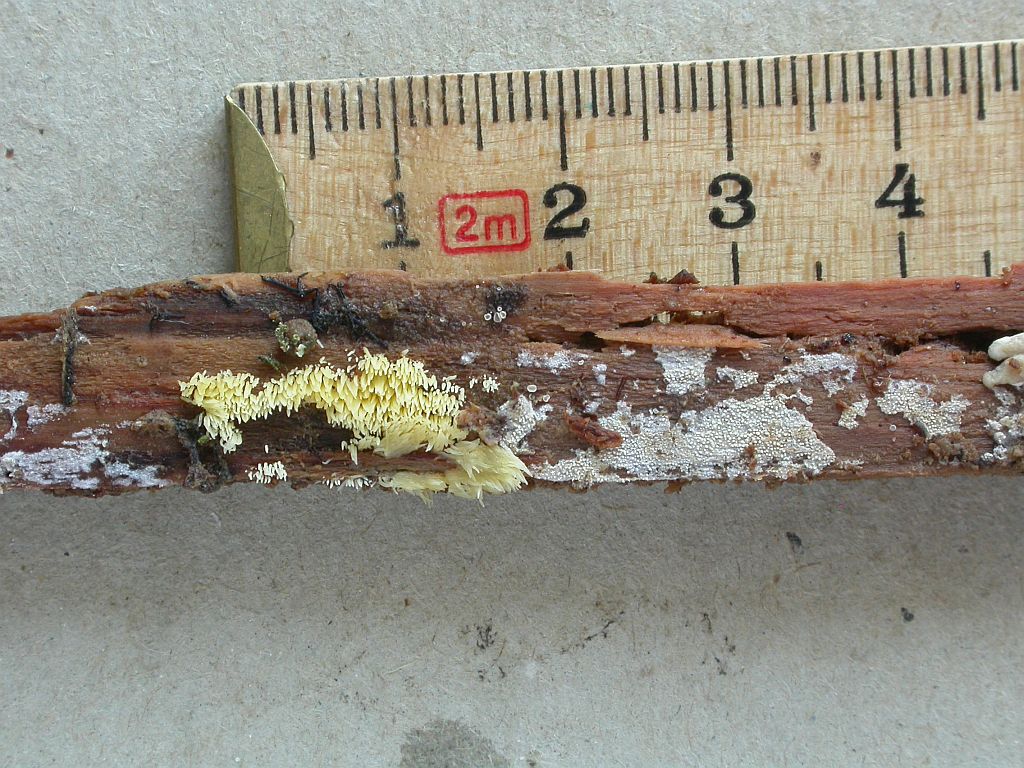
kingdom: Fungi
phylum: Basidiomycota
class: Agaricomycetes
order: Agaricales
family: Clavariaceae
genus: Mucronella
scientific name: Mucronella flava
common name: gul hængepig
